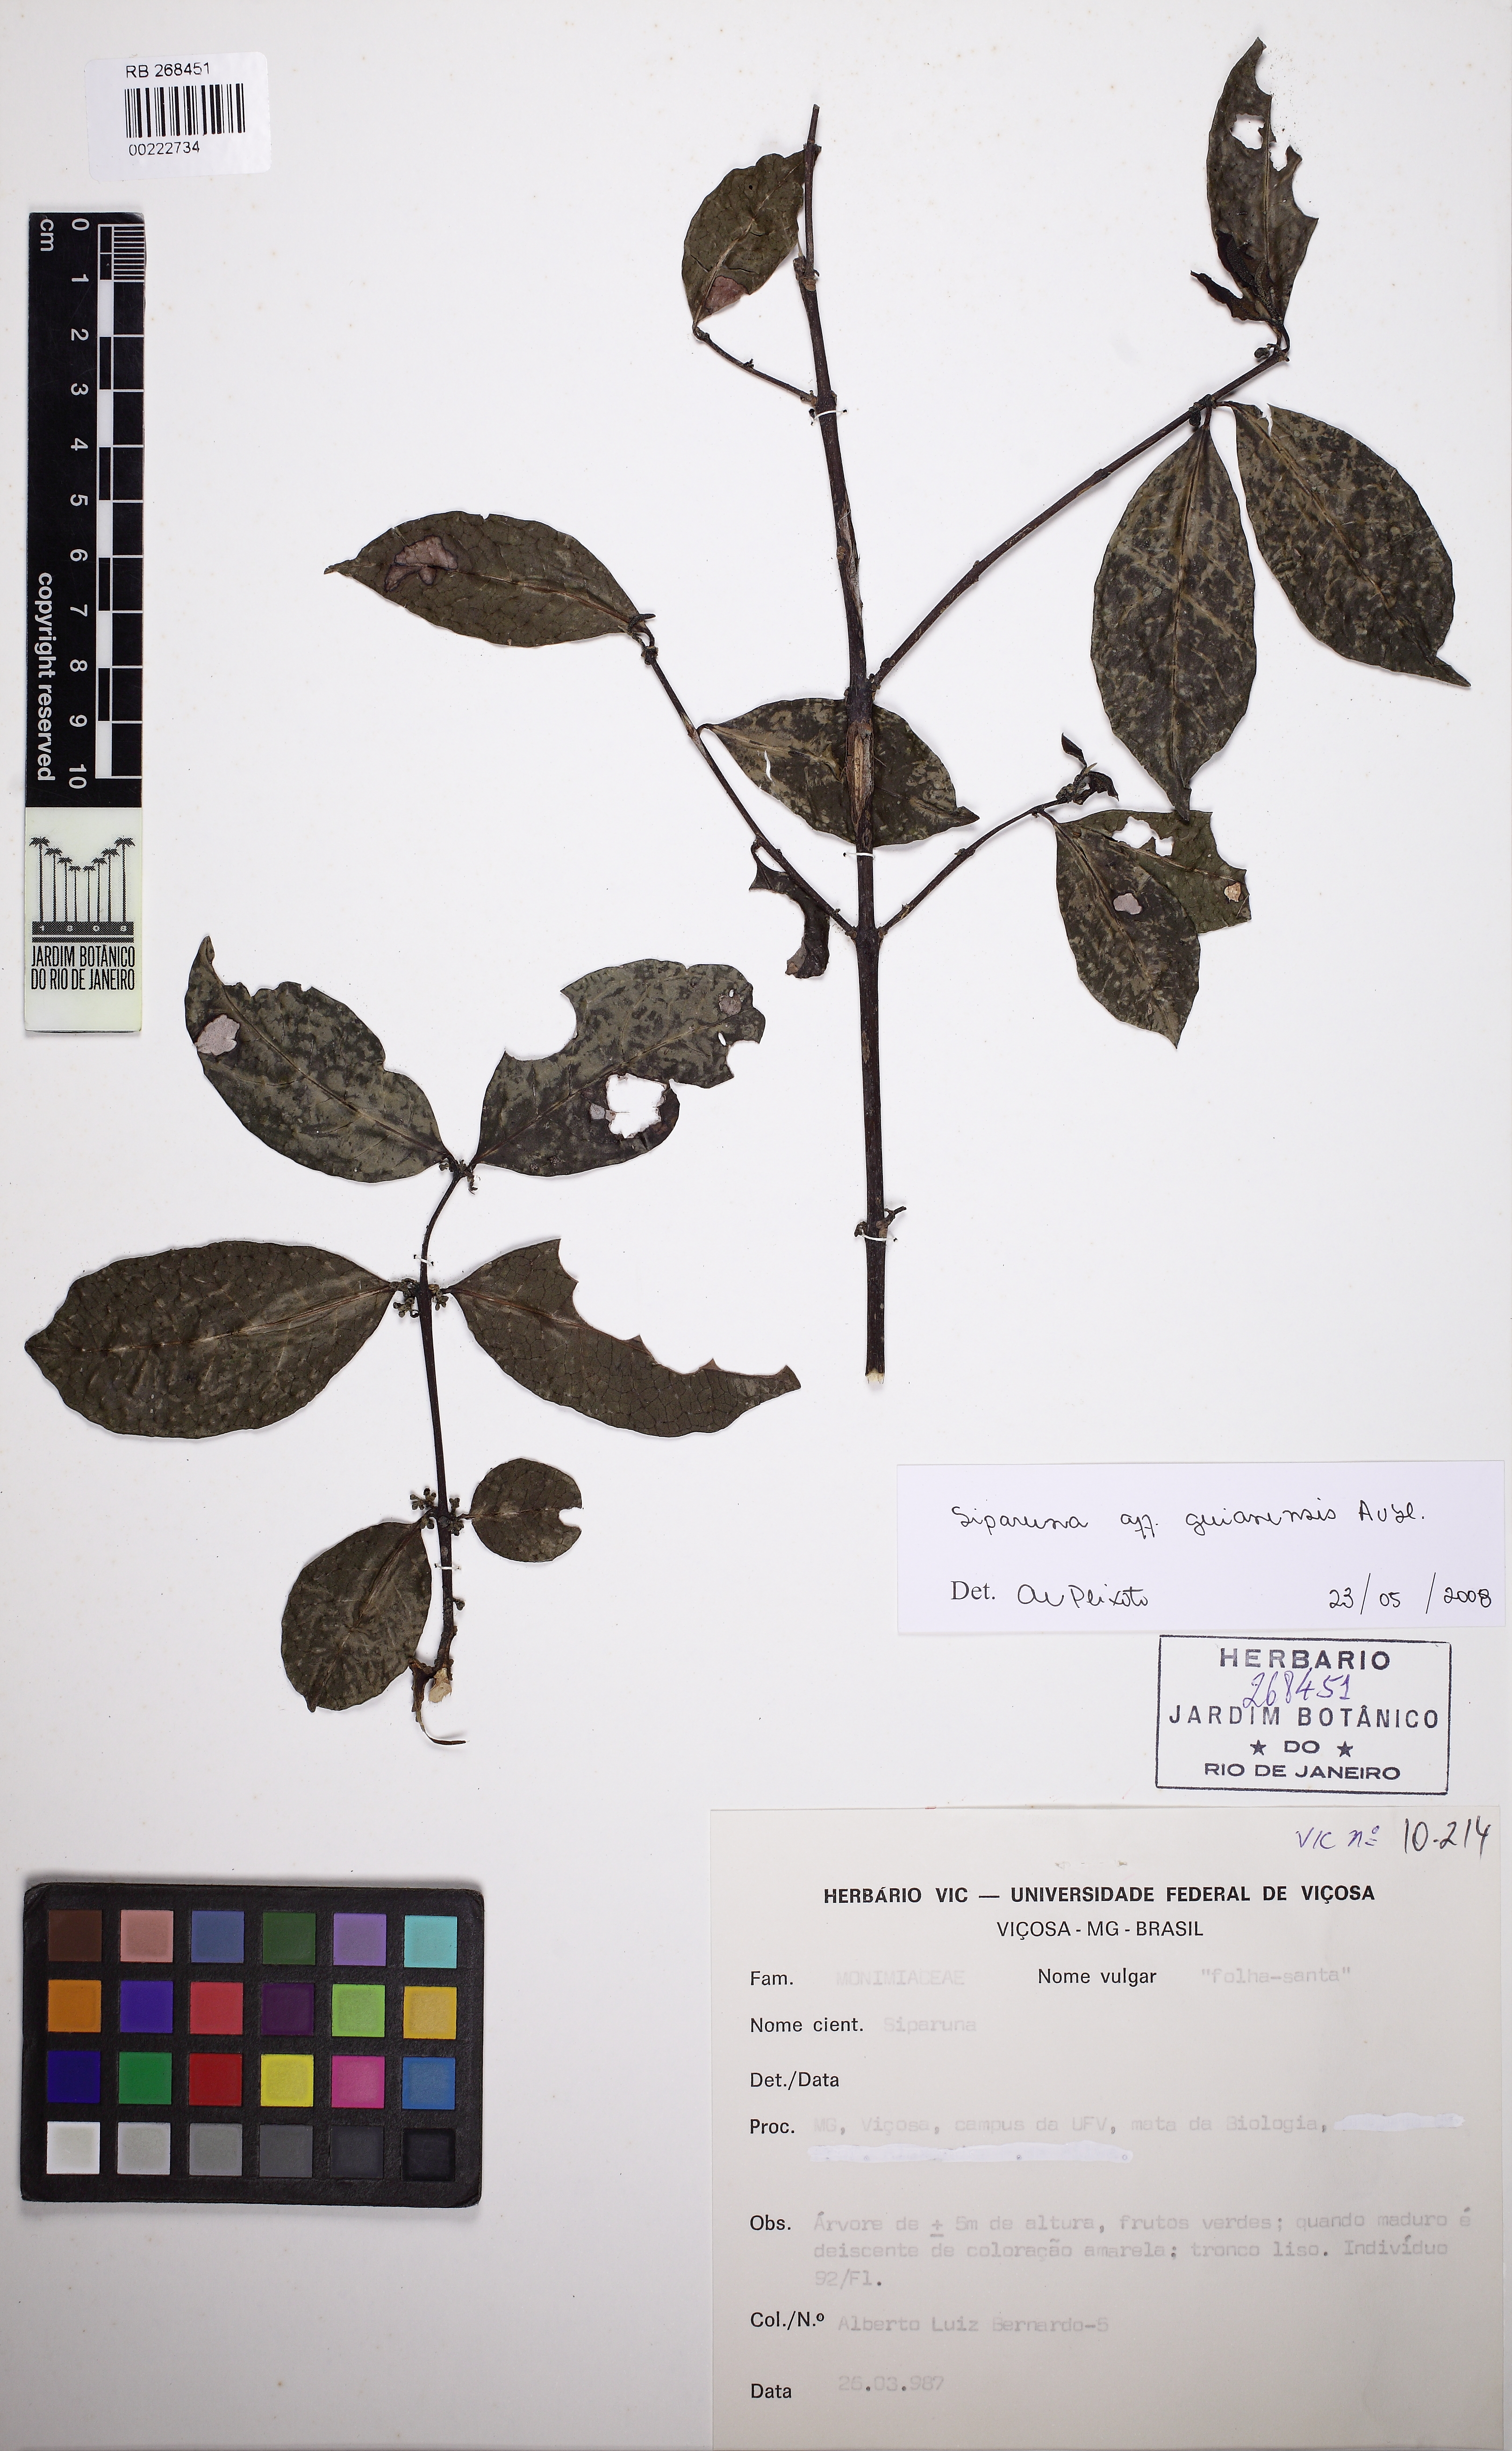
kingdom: Plantae
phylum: Tracheophyta
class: Magnoliopsida
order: Laurales
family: Siparunaceae
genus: Siparuna
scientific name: Siparuna guianensis
